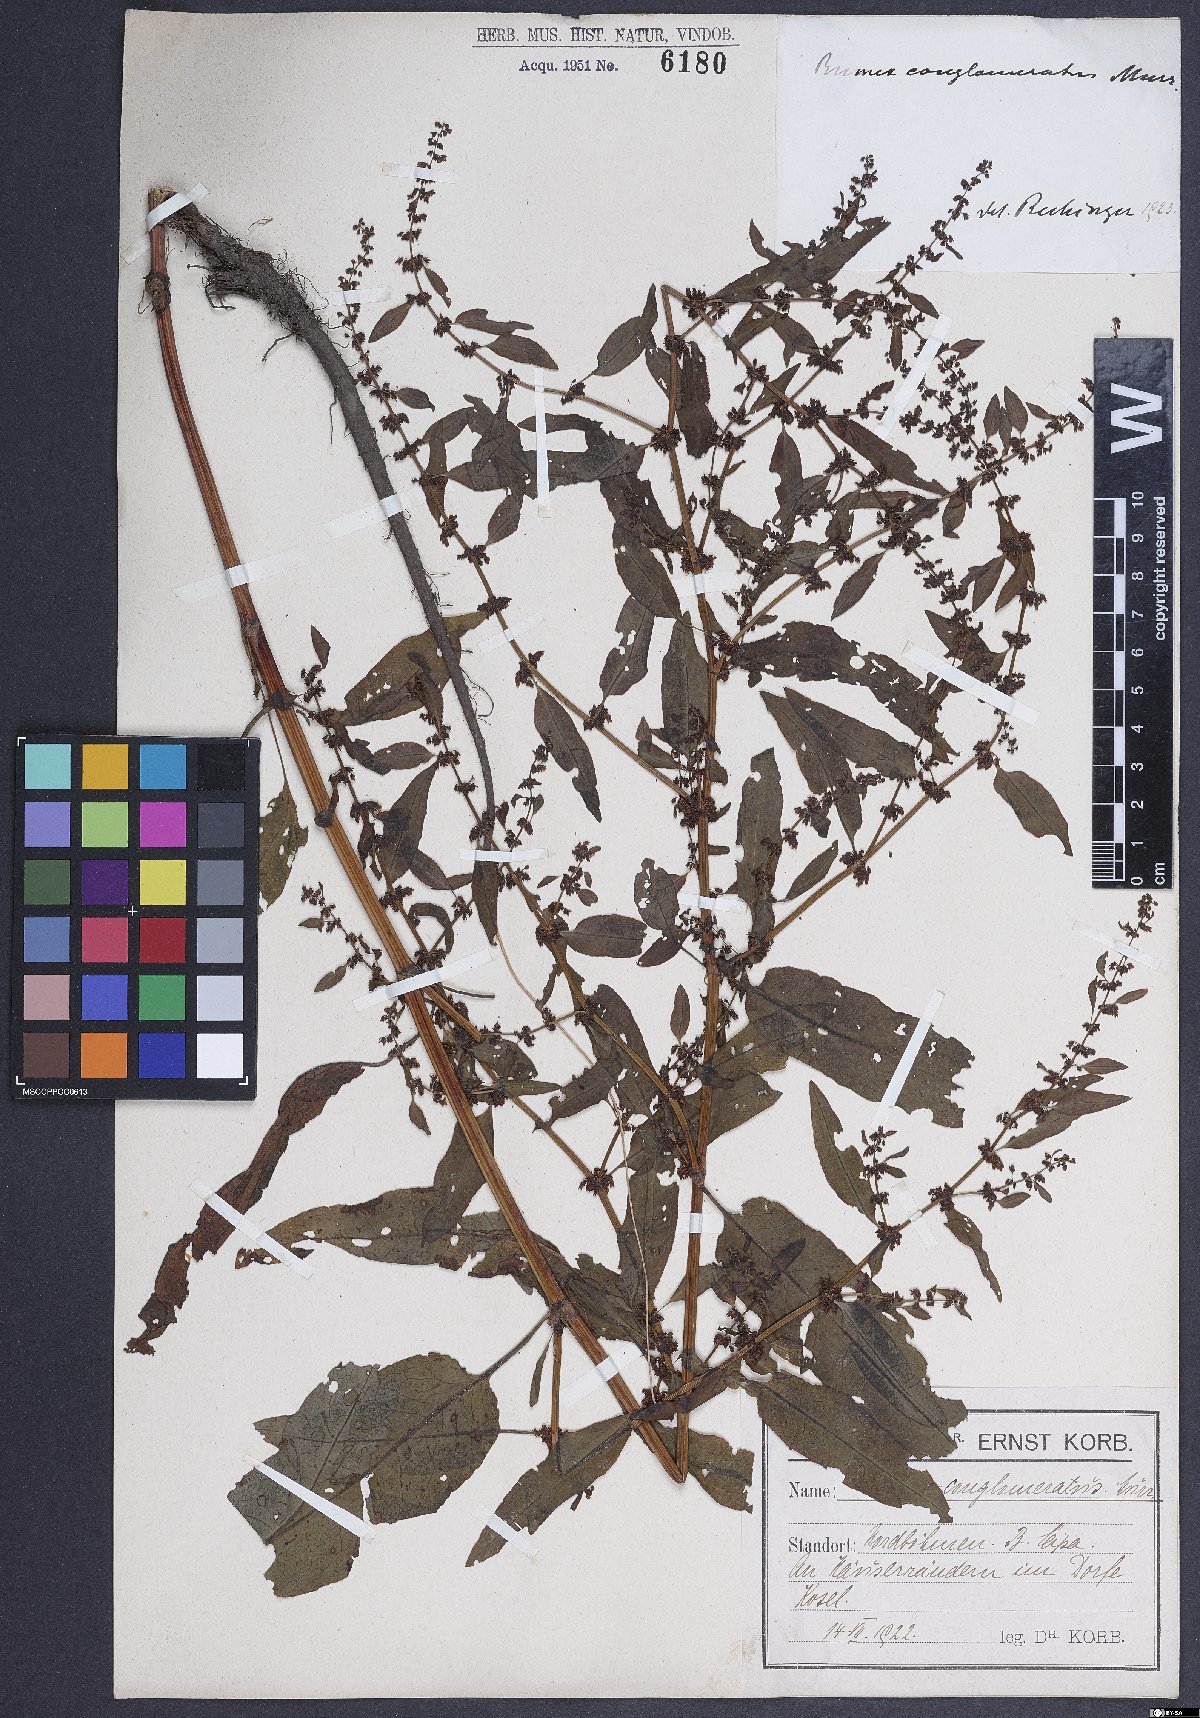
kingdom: Plantae
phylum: Tracheophyta
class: Magnoliopsida
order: Caryophyllales
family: Polygonaceae
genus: Rumex
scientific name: Rumex conglomeratus
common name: Clustered dock
